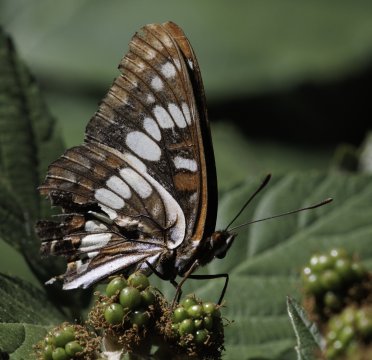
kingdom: Animalia
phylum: Arthropoda
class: Insecta
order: Lepidoptera
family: Nymphalidae
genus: Limenitis
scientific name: Limenitis lorquini
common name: Lorquin's Admiral
